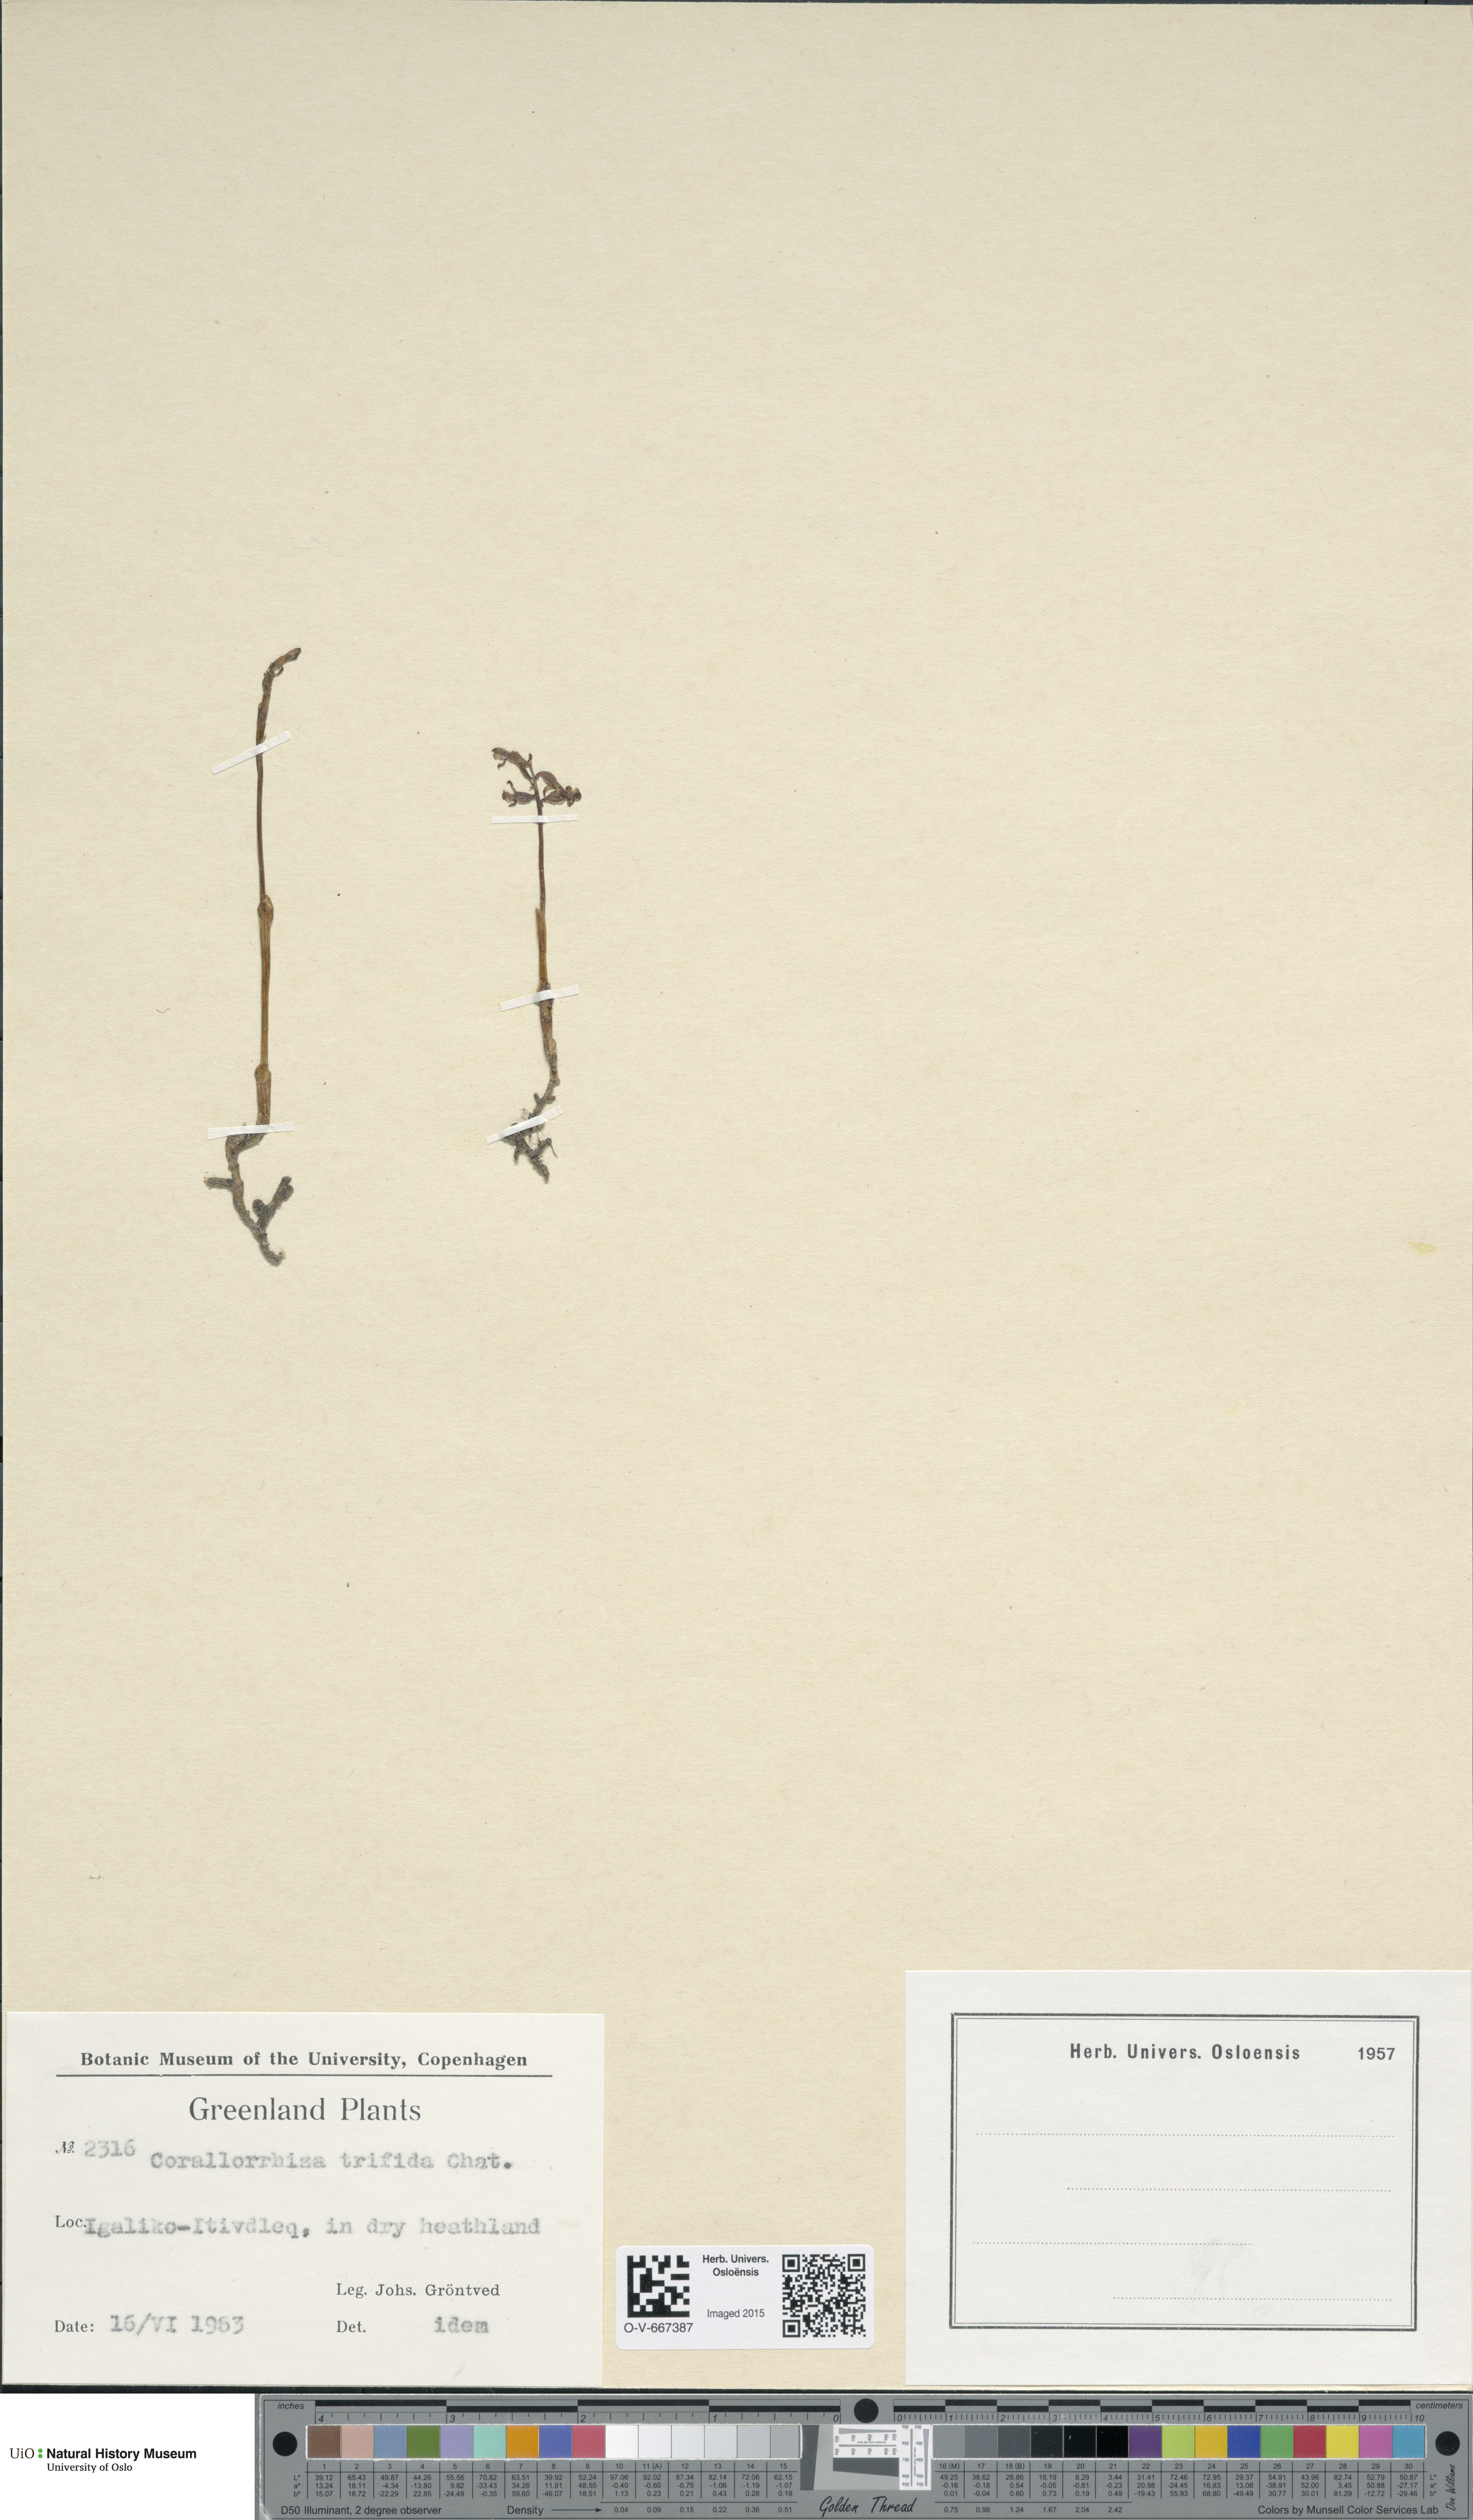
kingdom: Plantae
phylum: Tracheophyta
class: Liliopsida
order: Asparagales
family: Orchidaceae
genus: Corallorhiza
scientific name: Corallorhiza trifida
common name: Yellow coralroot
